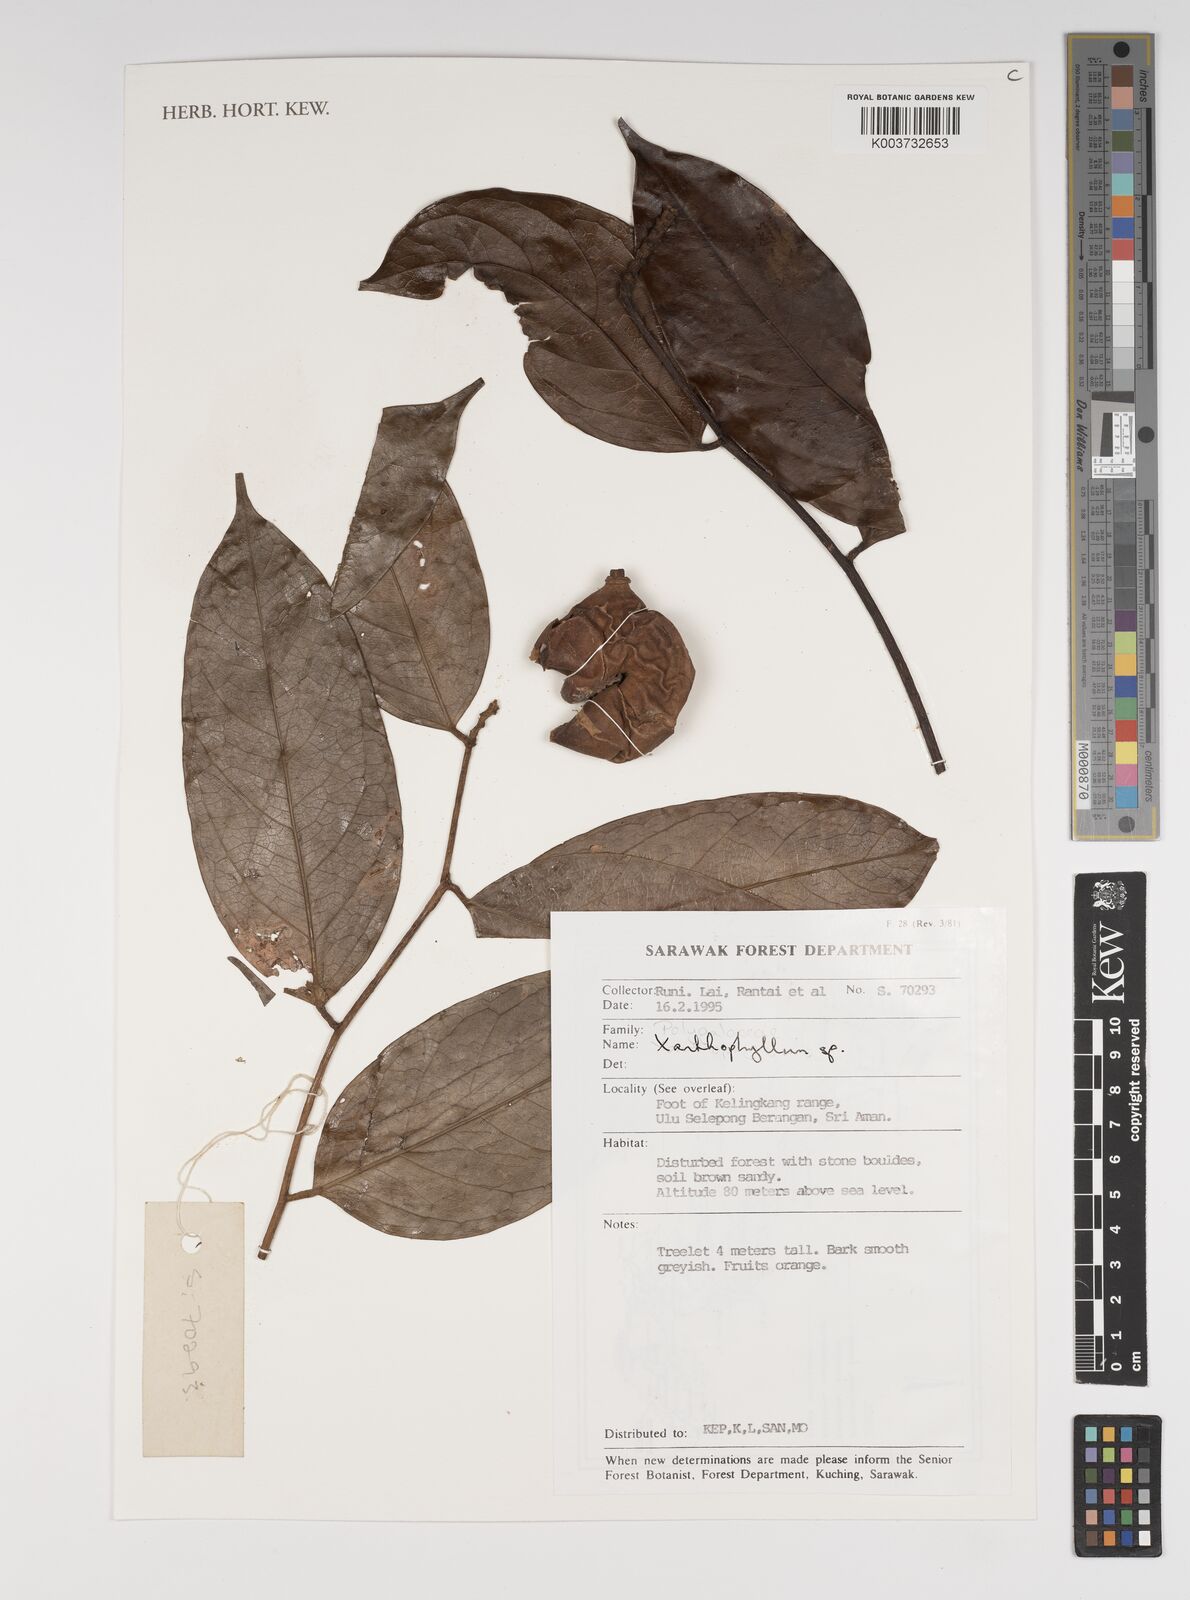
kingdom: Plantae
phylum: Tracheophyta
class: Magnoliopsida
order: Fabales
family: Polygalaceae
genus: Xanthophyllum
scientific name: Xanthophyllum
